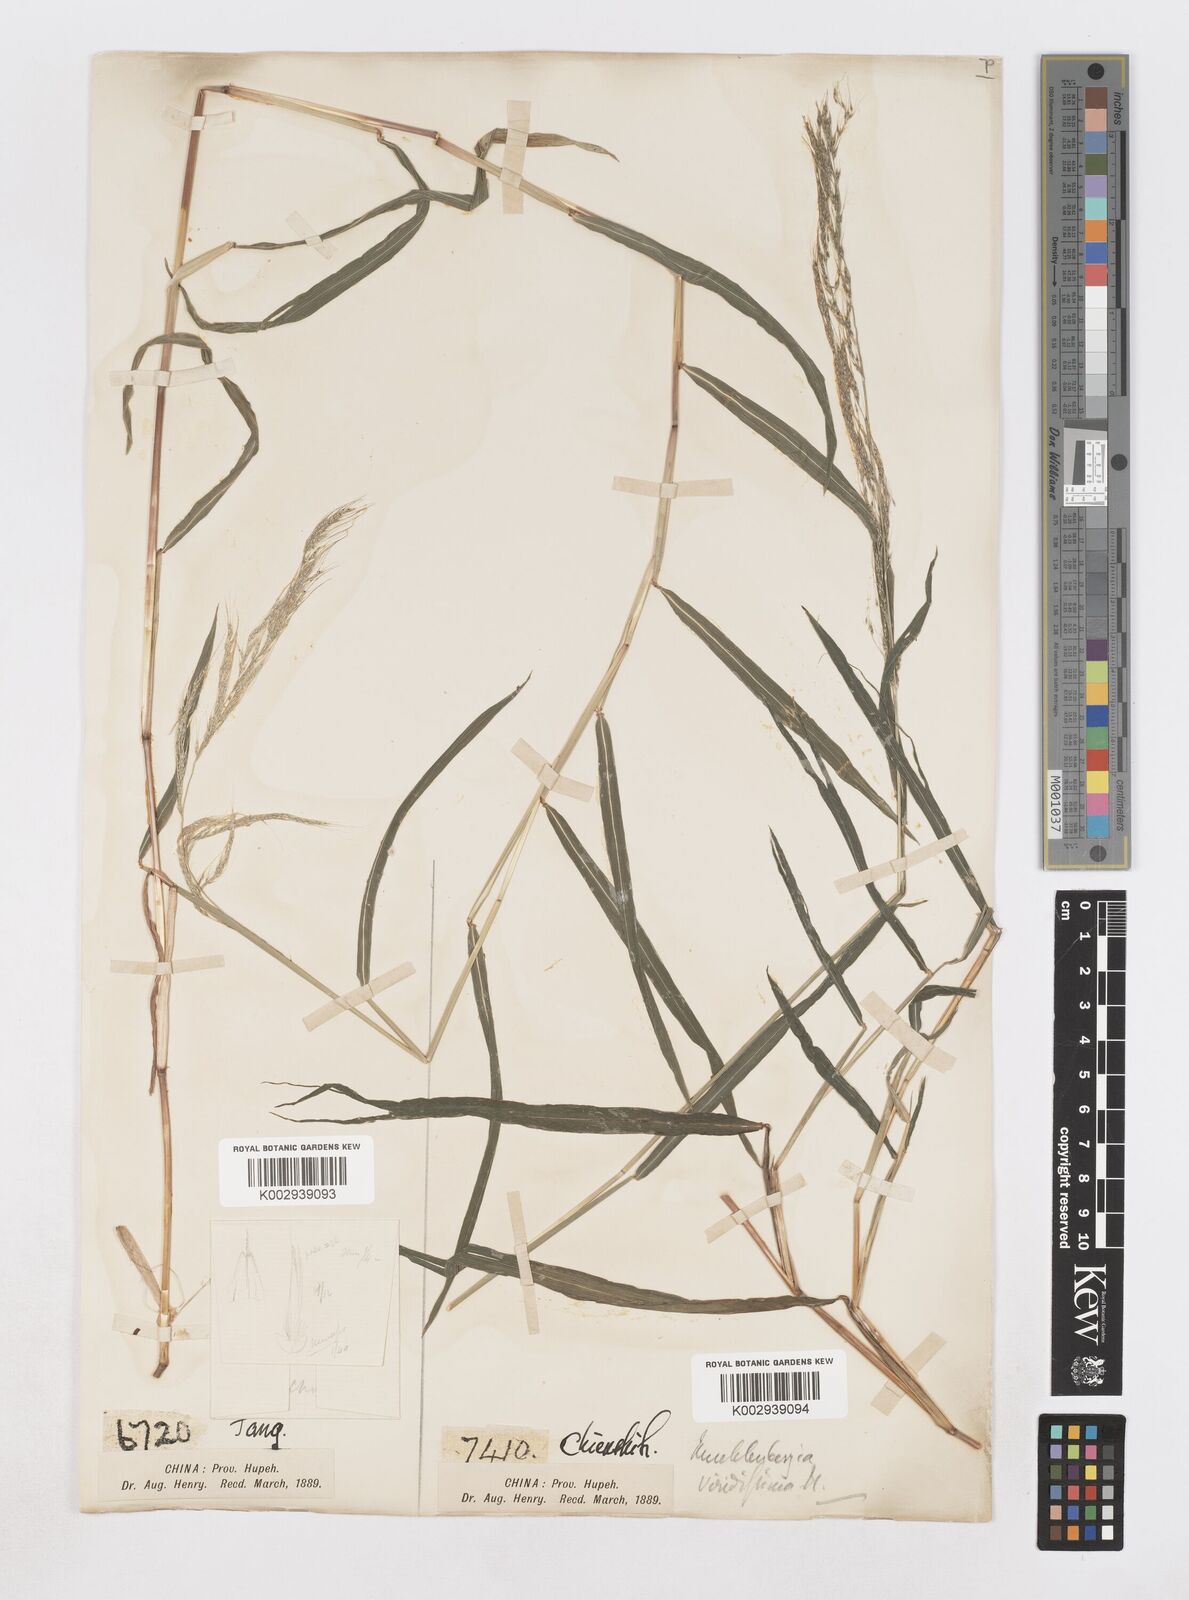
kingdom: Plantae
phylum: Tracheophyta
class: Liliopsida
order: Poales
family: Poaceae
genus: Muhlenbergia
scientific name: Muhlenbergia huegelii
